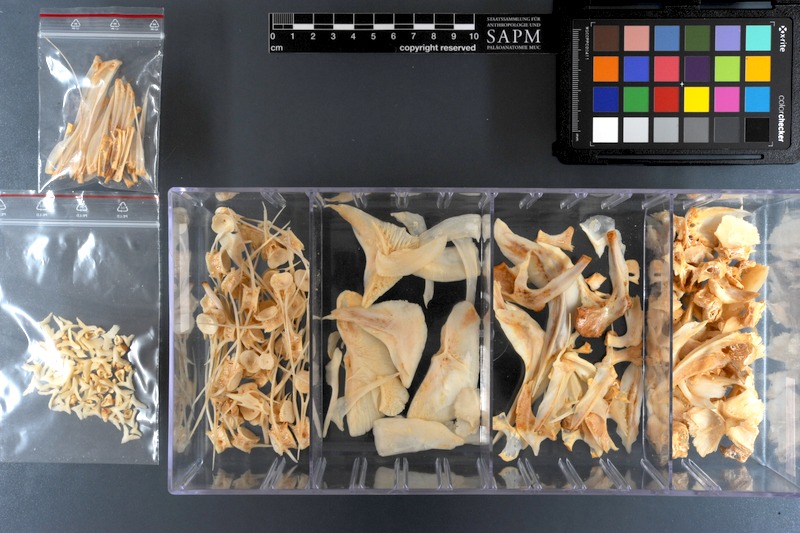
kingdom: Animalia
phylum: Chordata
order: Characiformes
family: Serrasalmidae
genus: Colossoma
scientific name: Colossoma macropomum
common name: Blackfin pacu
